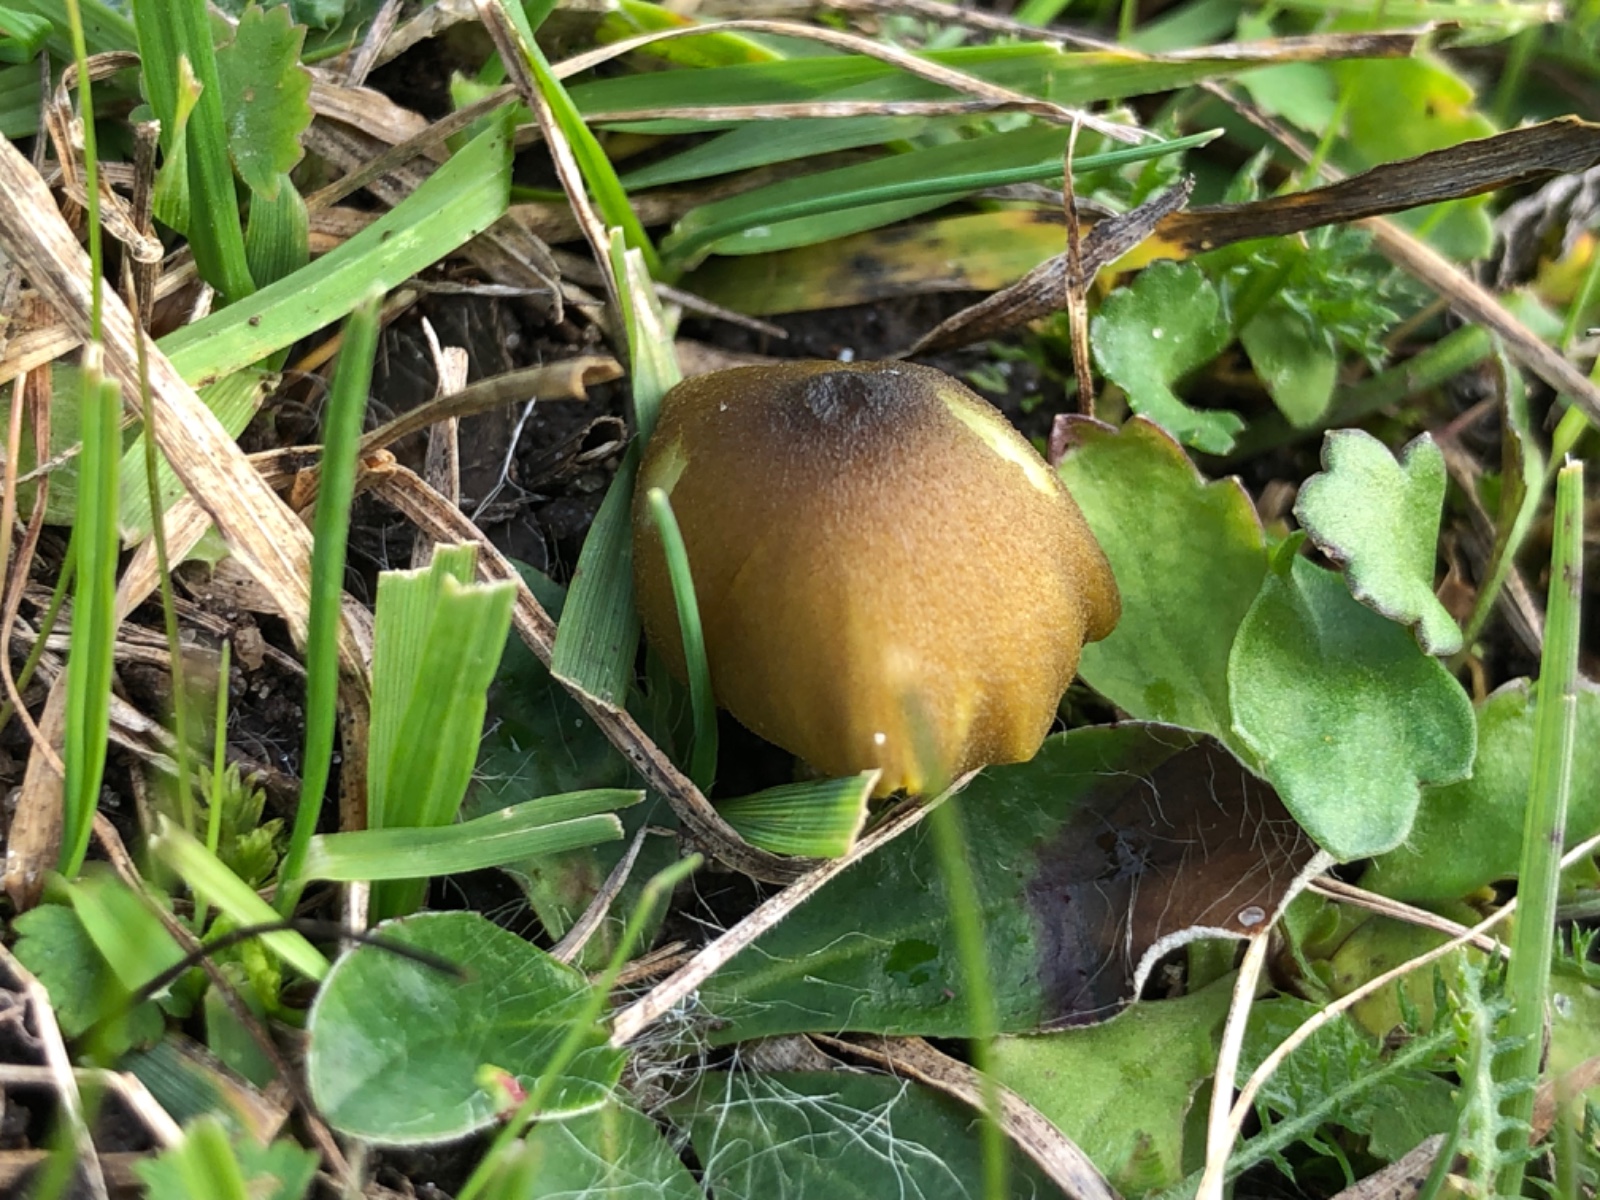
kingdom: Fungi
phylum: Basidiomycota
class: Agaricomycetes
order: Agaricales
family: Entolomataceae
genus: Entoloma
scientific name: Entoloma incanum
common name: grøngul rødblad
